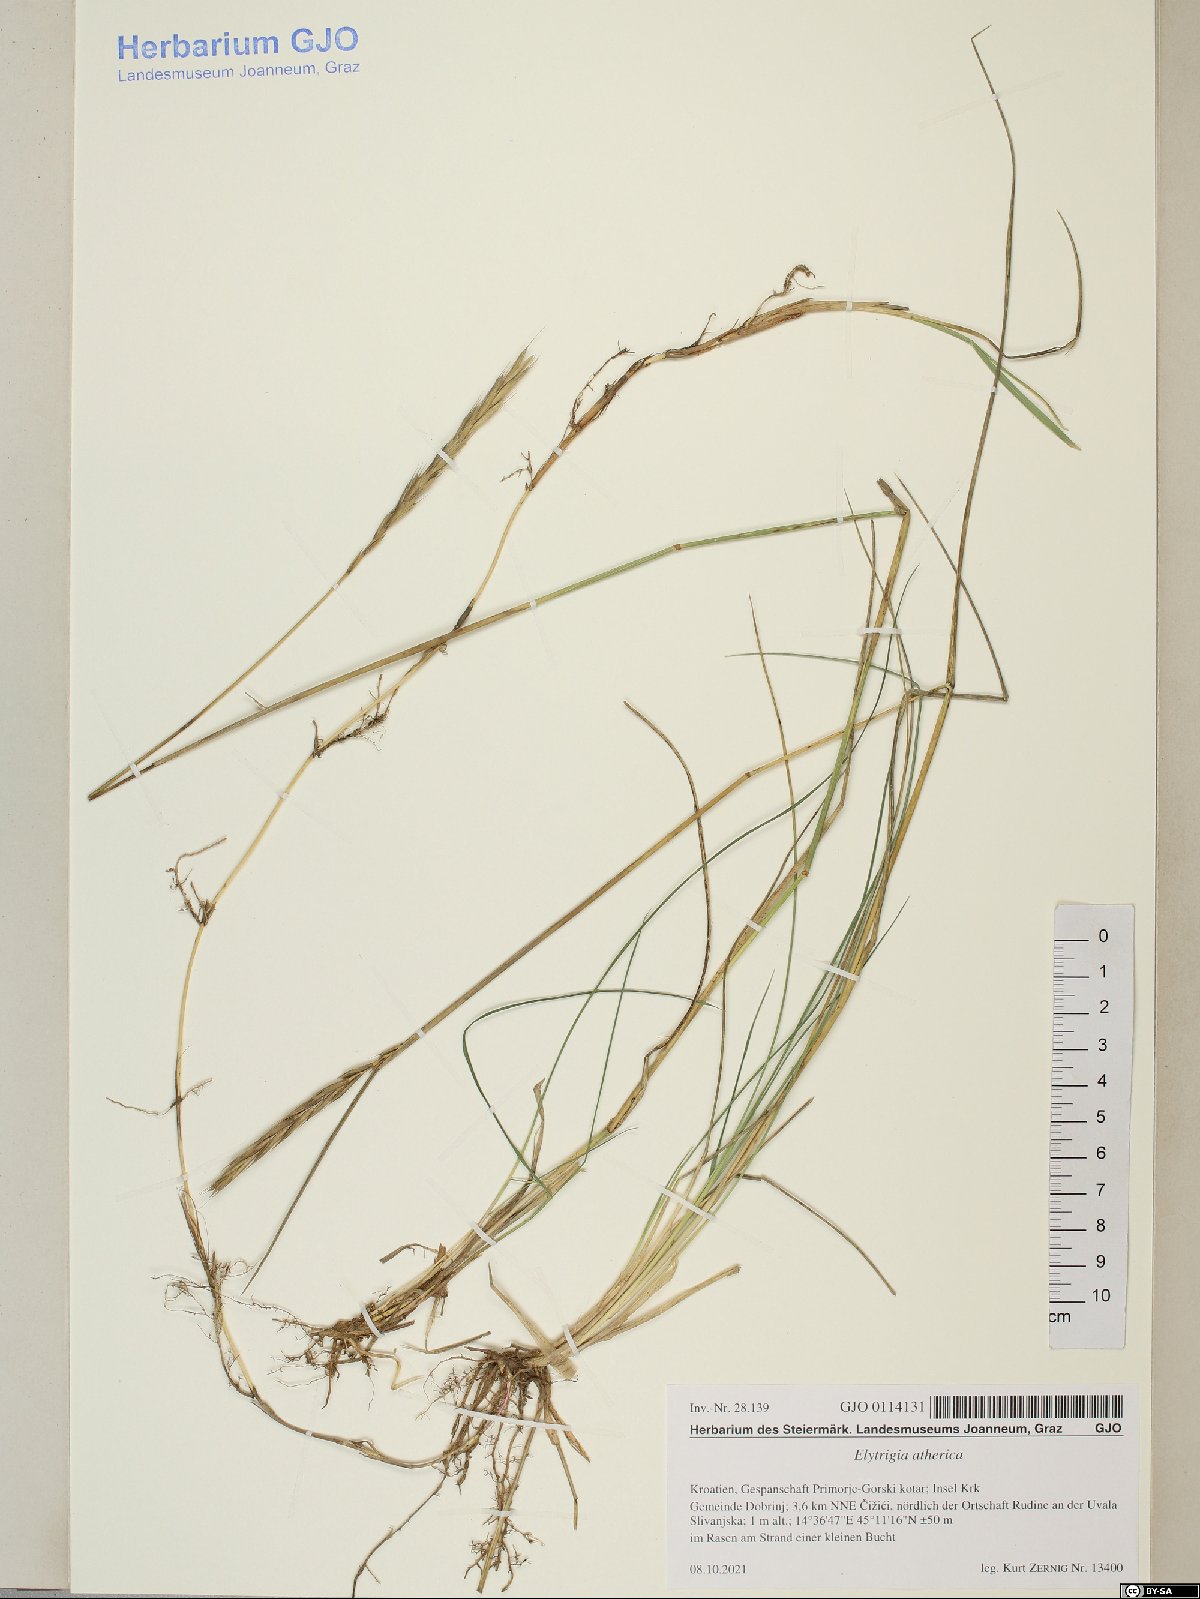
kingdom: Plantae
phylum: Tracheophyta
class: Liliopsida
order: Poales
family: Poaceae
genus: Elymus
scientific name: Elymus athericus
